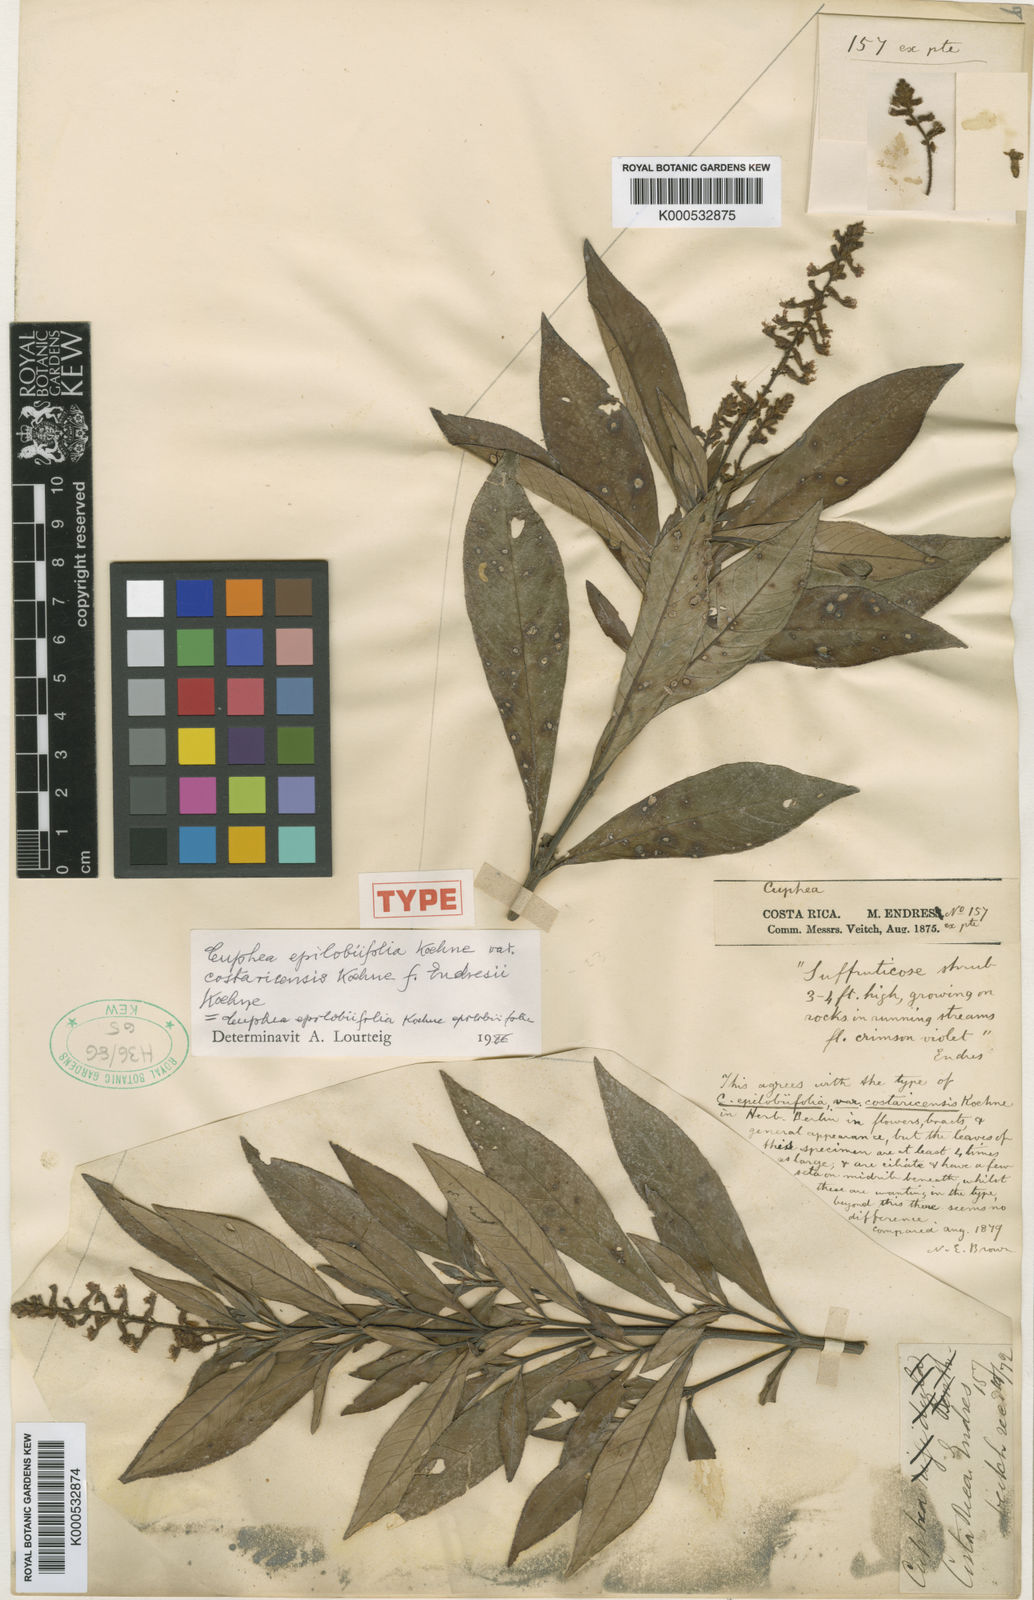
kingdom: Plantae
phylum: Tracheophyta
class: Magnoliopsida
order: Myrtales
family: Lythraceae
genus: Cuphea
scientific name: Cuphea epilobiifolia
